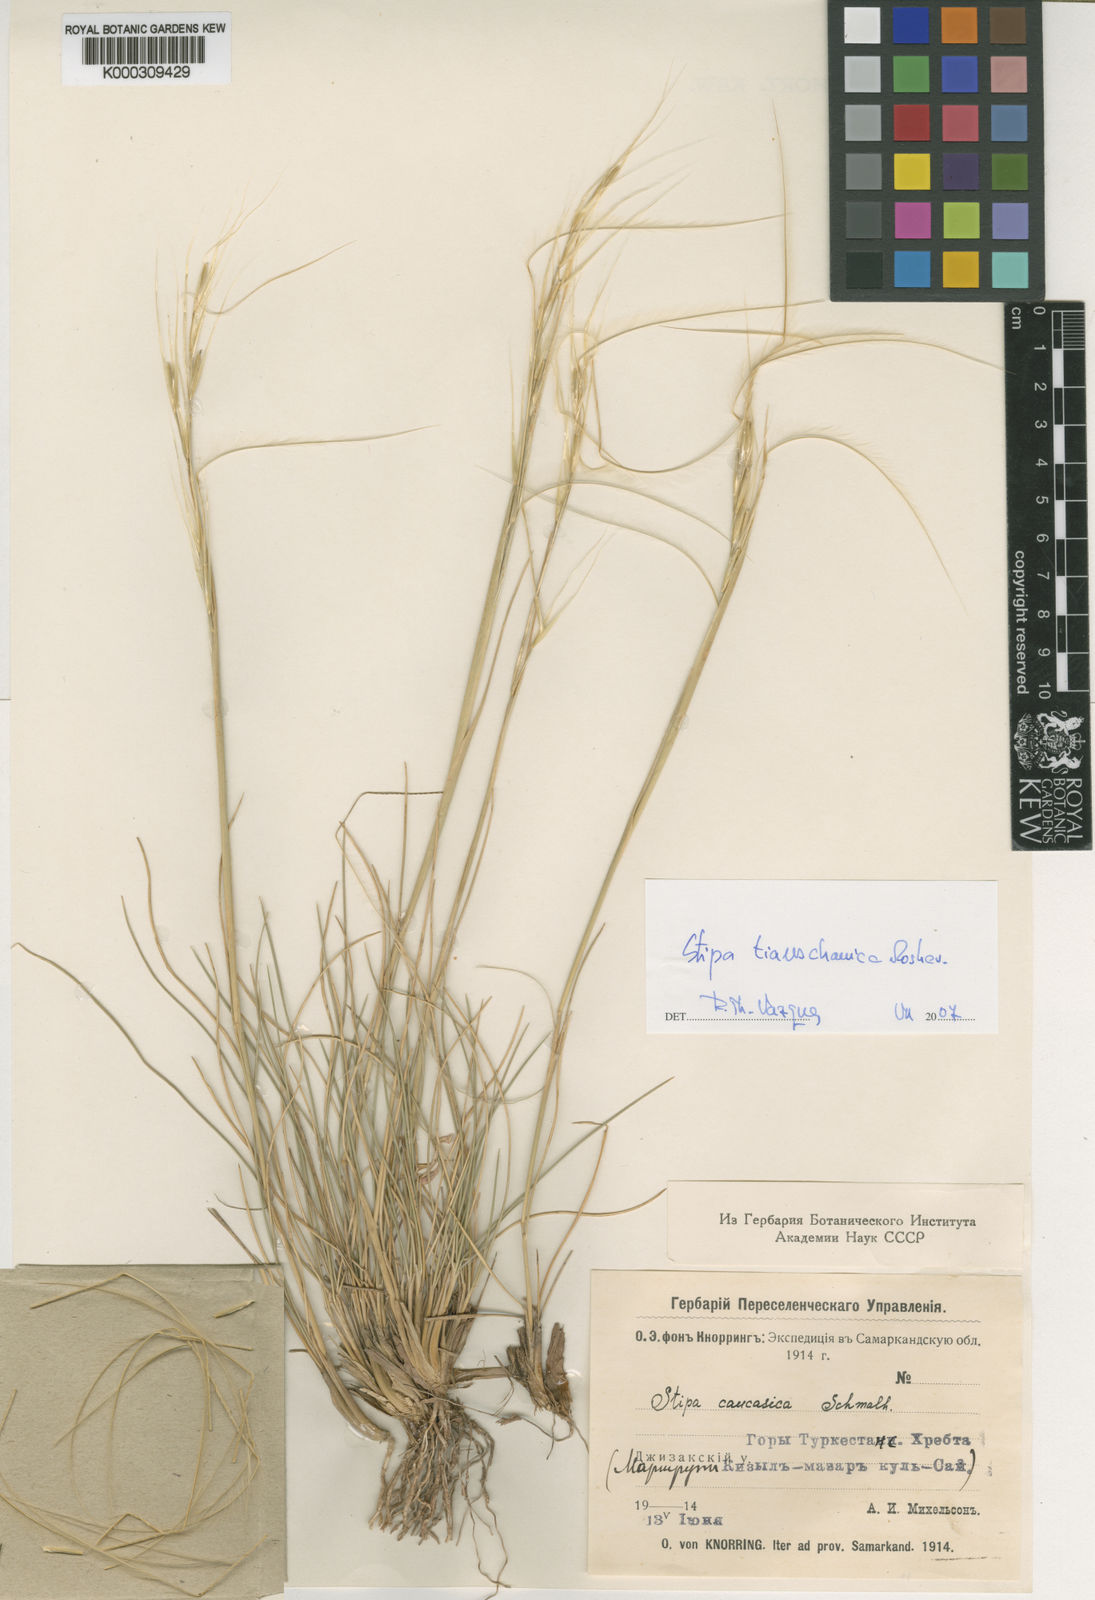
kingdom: Plantae
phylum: Tracheophyta
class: Liliopsida
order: Poales
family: Poaceae
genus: Stipa
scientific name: Stipa caucasica
